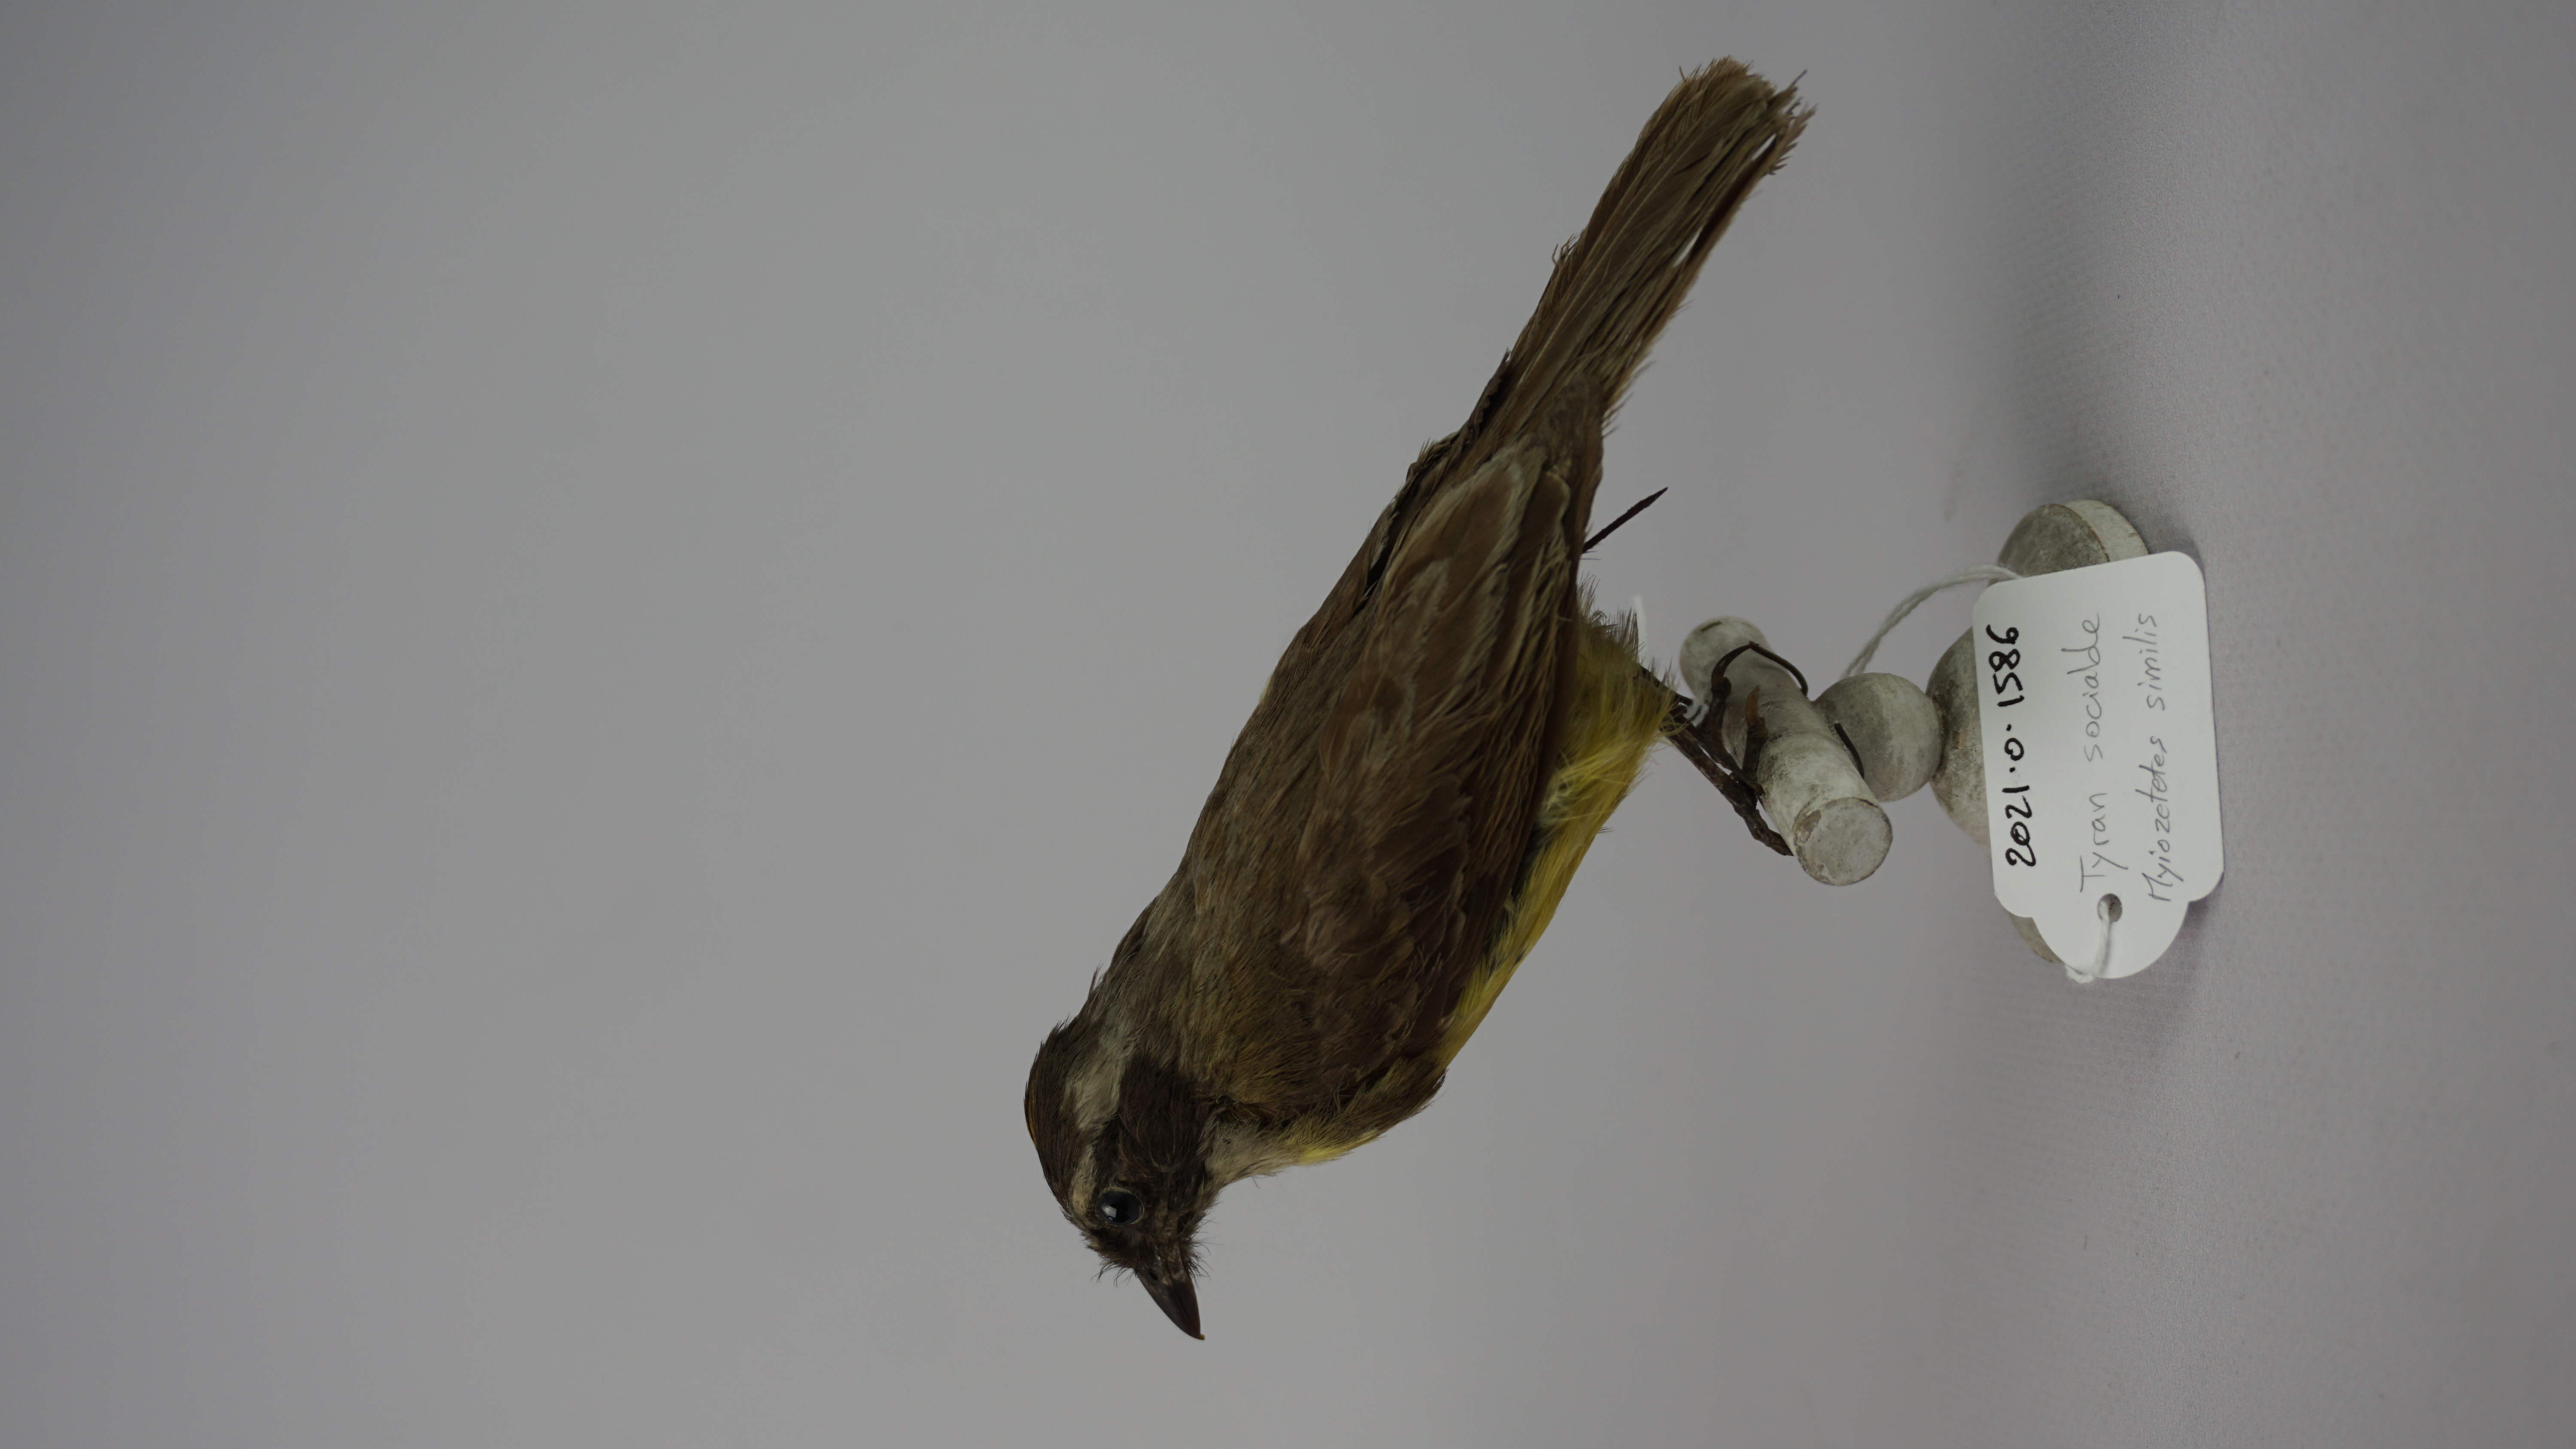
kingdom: Animalia
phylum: Chordata
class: Aves
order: Passeriformes
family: Tyrannidae
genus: Myiozetetes
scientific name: Myiozetetes similis
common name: Social flycatcher
